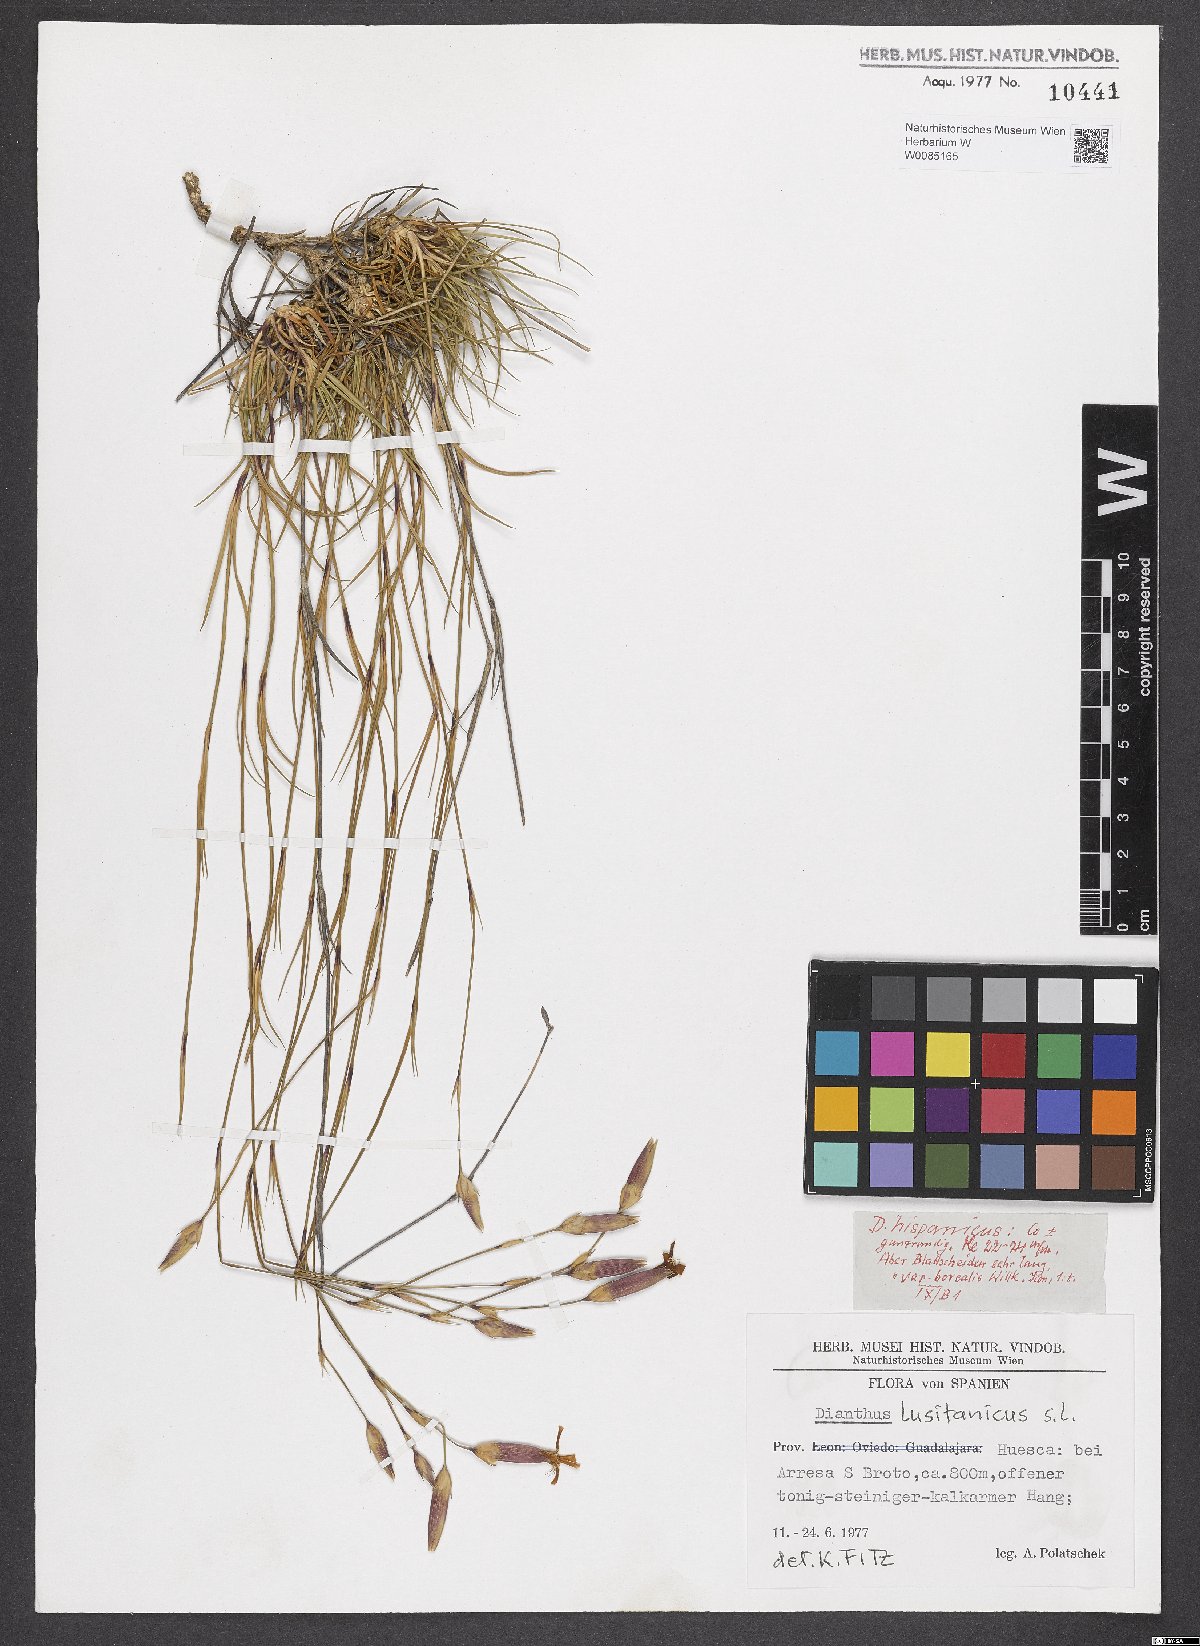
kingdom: Plantae
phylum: Tracheophyta
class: Magnoliopsida
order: Caryophyllales
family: Caryophyllaceae
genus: Dianthus
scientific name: Dianthus lusitanus
